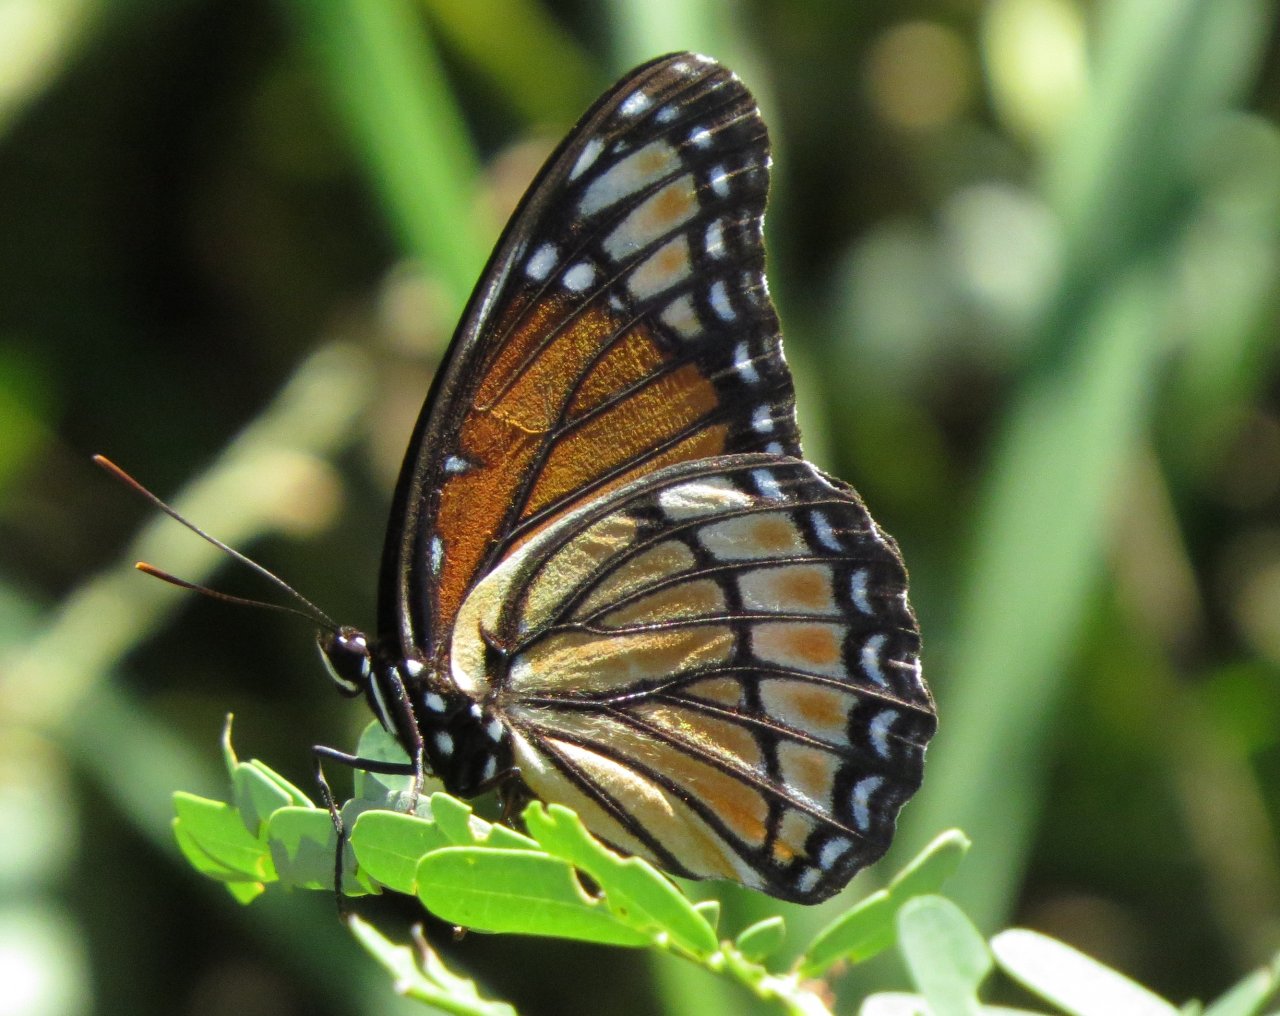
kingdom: Animalia
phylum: Arthropoda
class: Insecta
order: Lepidoptera
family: Nymphalidae
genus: Limenitis
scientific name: Limenitis archippus
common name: Viceroy
